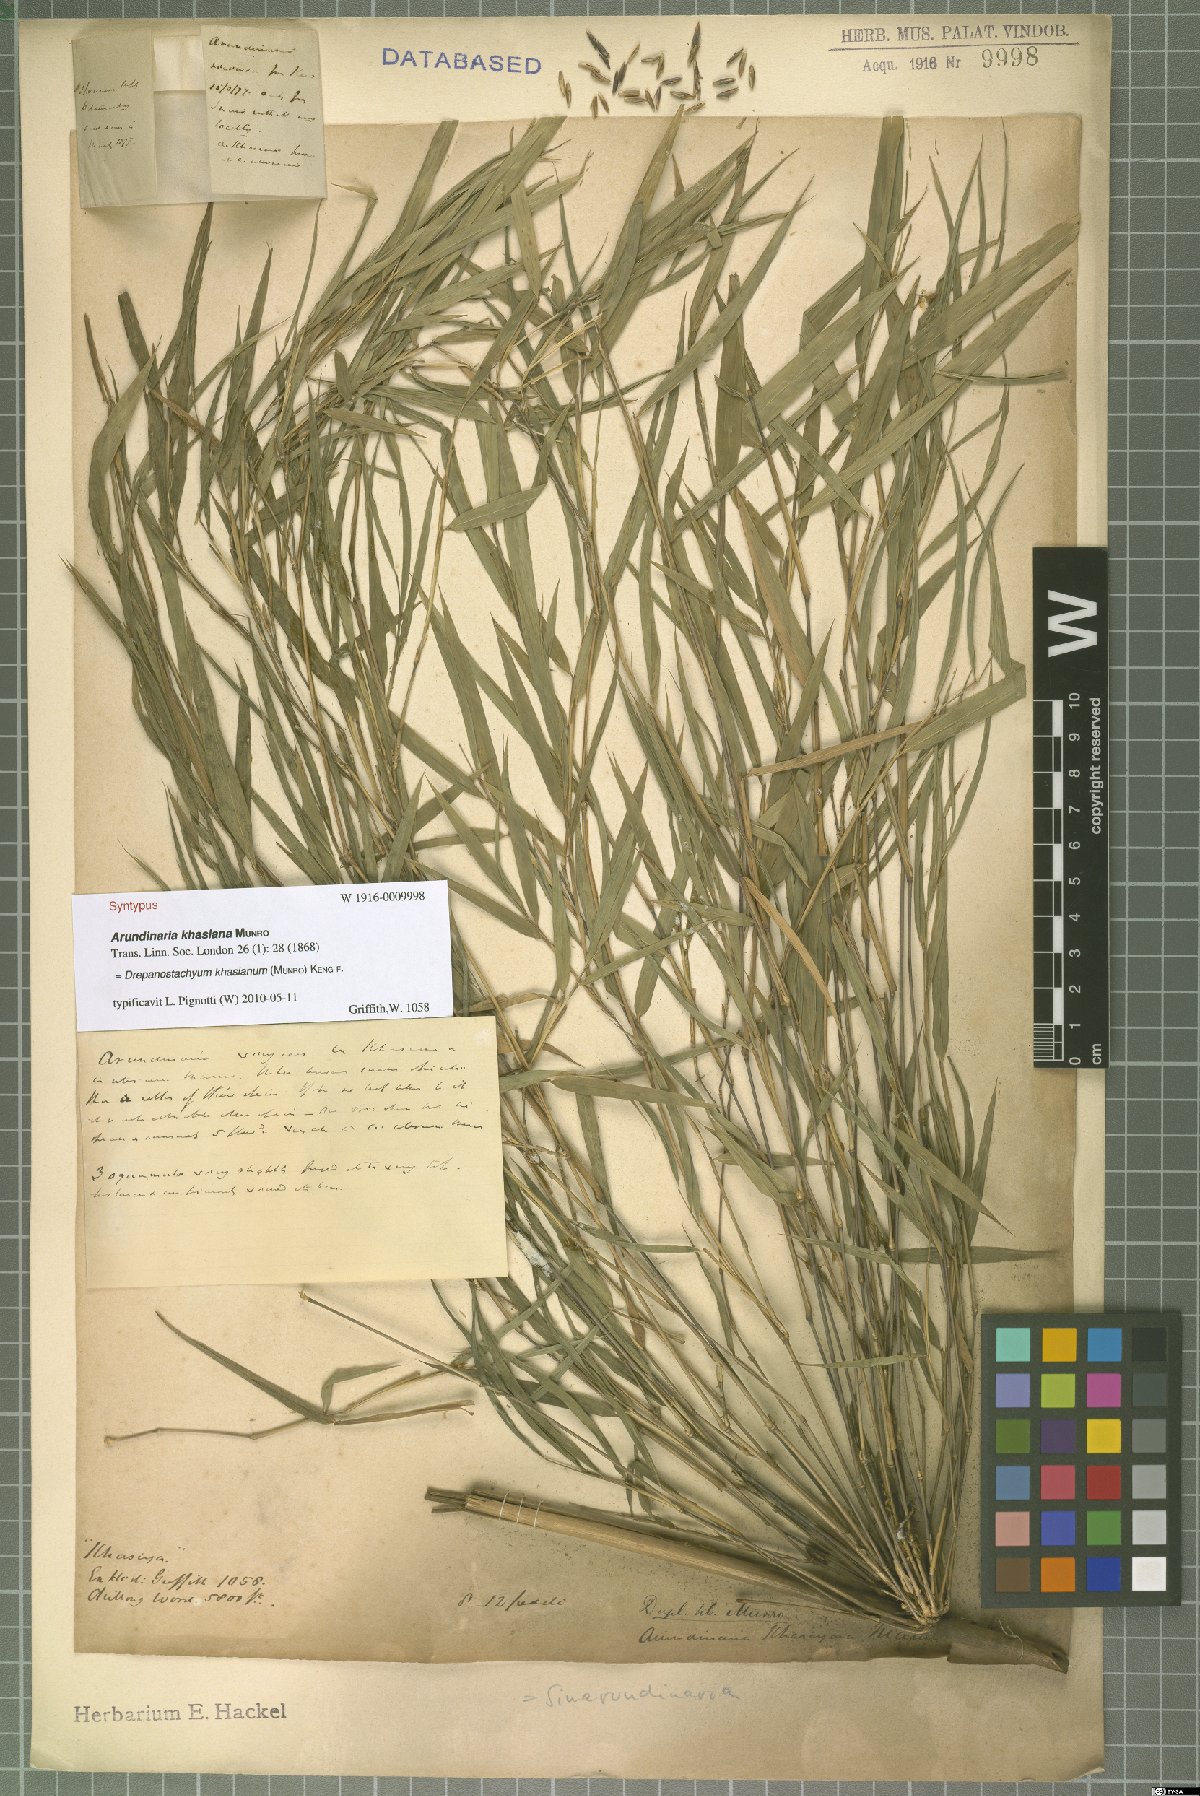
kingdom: Plantae
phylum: Tracheophyta
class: Liliopsida
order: Poales
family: Poaceae
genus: Drepanostachyum
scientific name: Drepanostachyum khasianum
